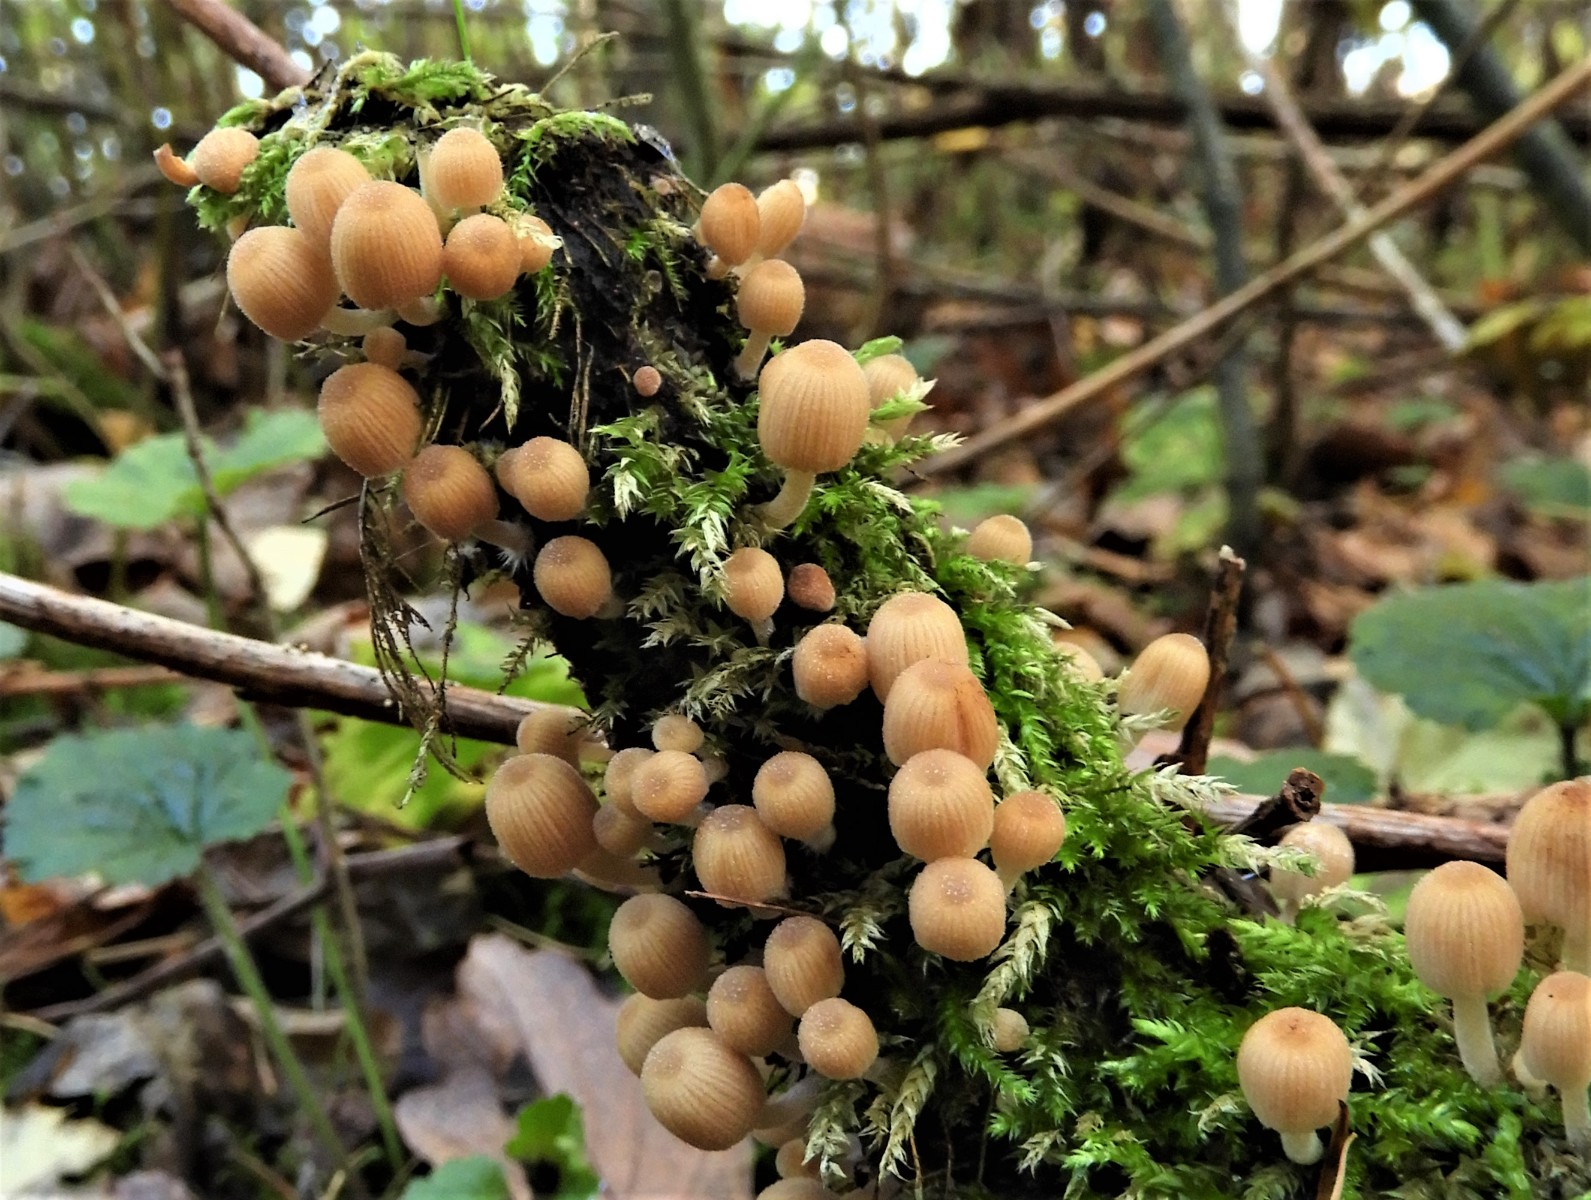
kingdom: Fungi
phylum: Basidiomycota
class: Agaricomycetes
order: Agaricales
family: Psathyrellaceae
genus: Coprinellus
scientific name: Coprinellus disseminatus
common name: bredsået blækhat
